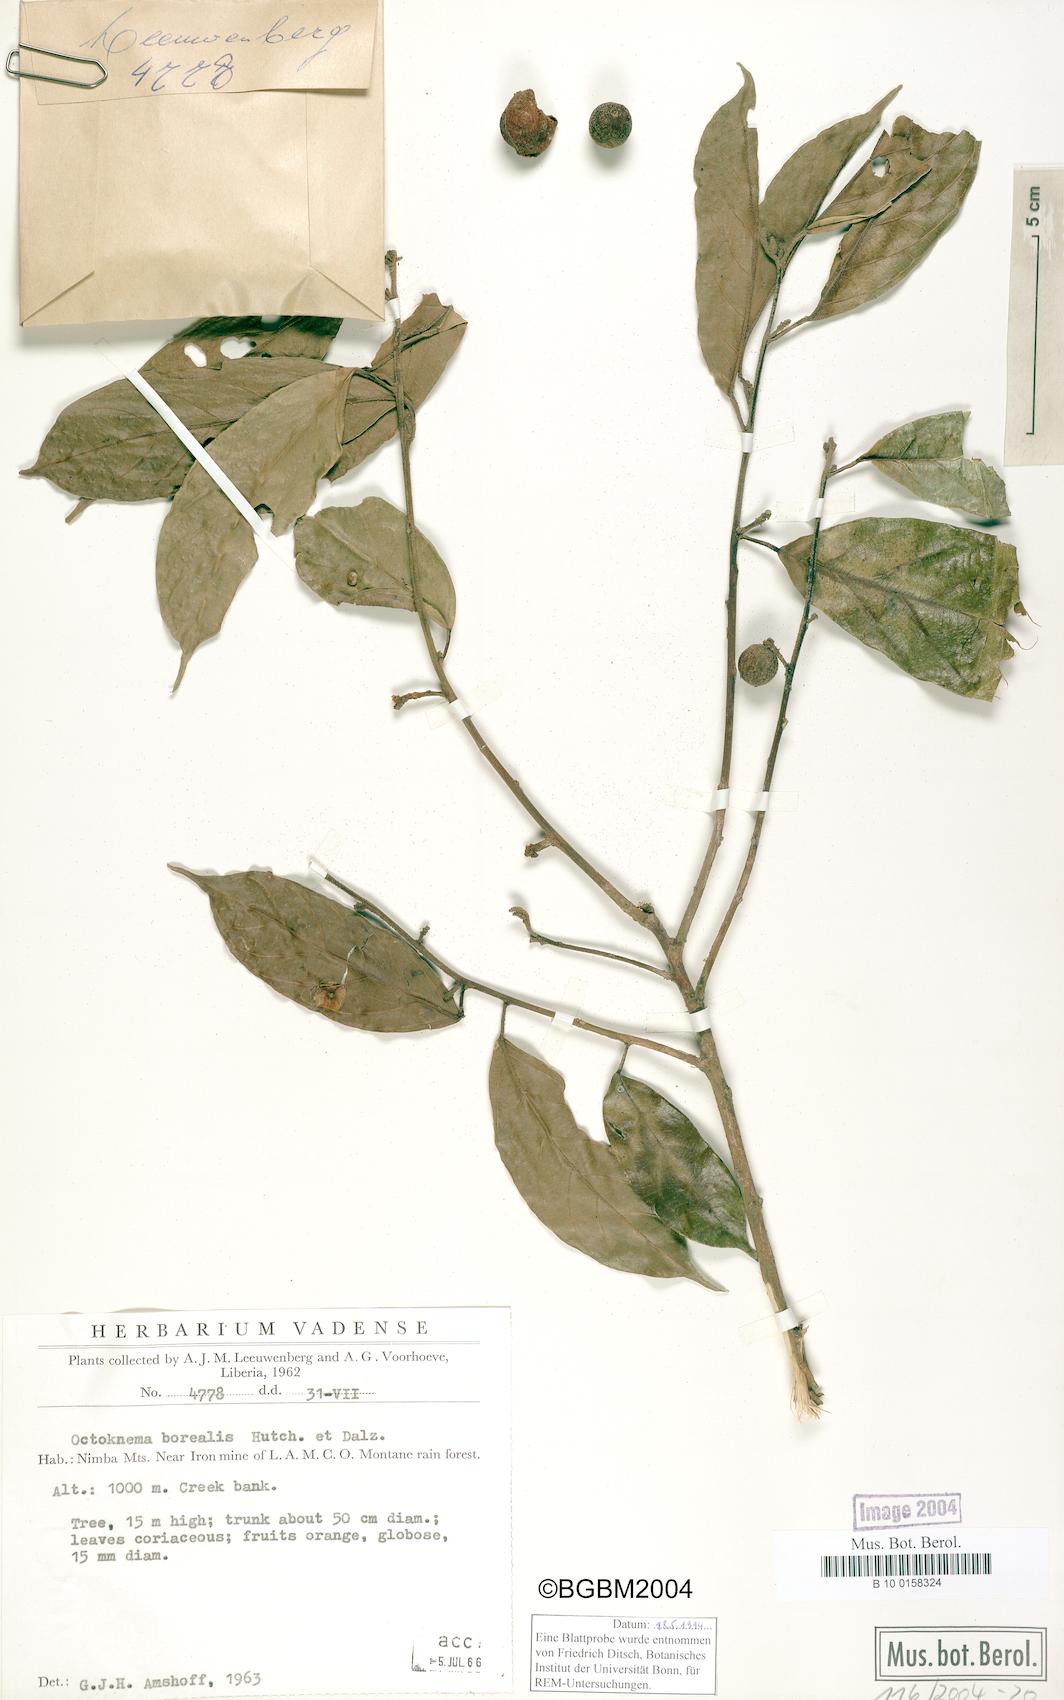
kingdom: Plantae
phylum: Tracheophyta
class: Magnoliopsida
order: Santalales
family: Octoknemaceae
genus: Octoknema
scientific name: Octoknema borealis
